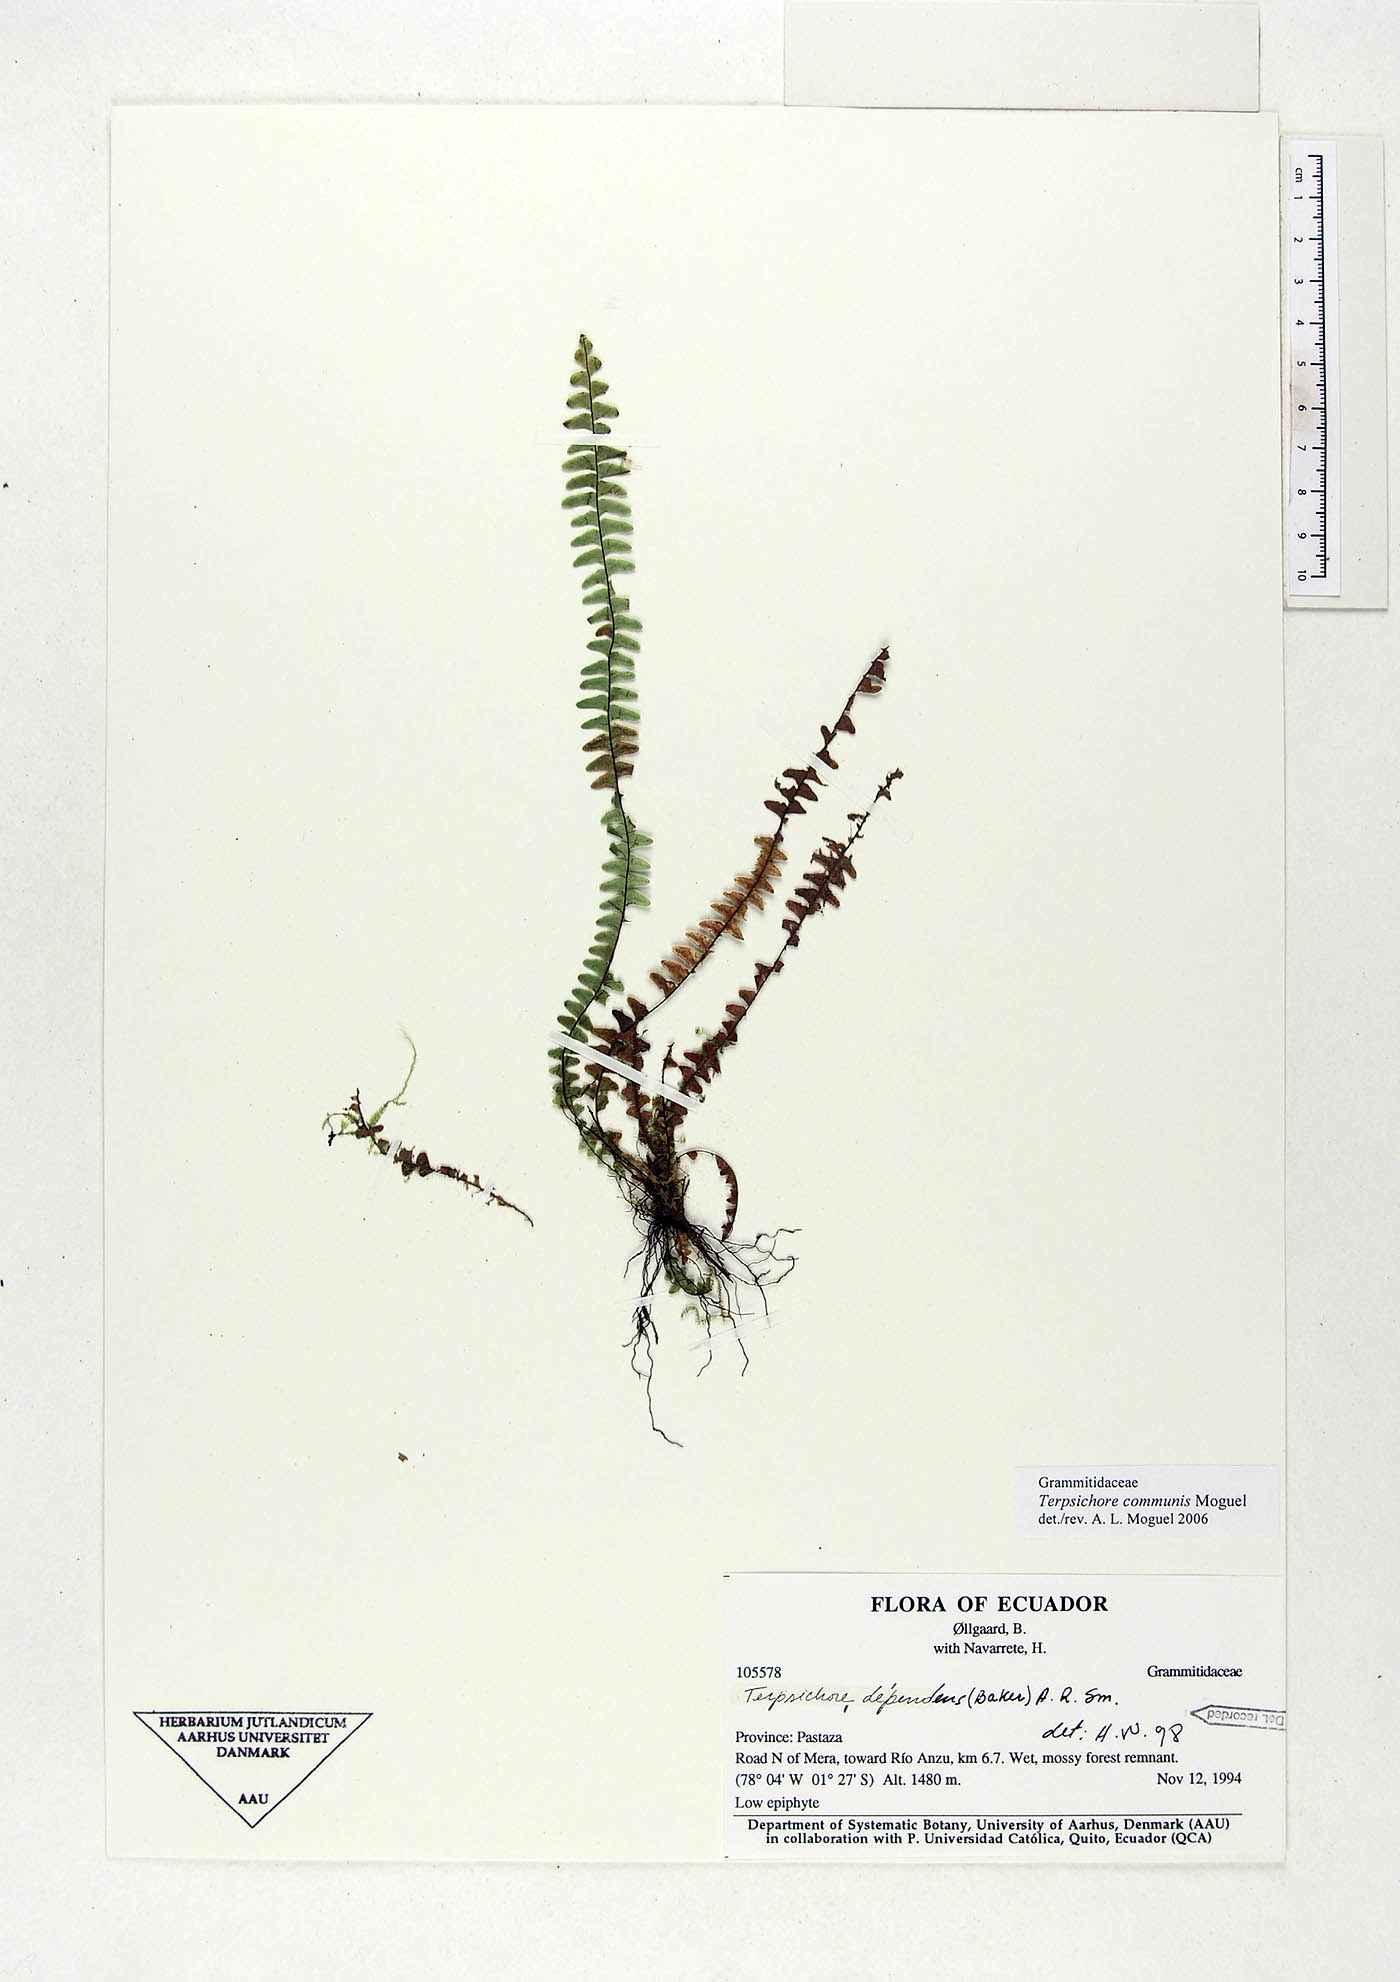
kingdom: Plantae
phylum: Tracheophyta
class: Polypodiopsida
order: Polypodiales
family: Polypodiaceae
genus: Terpsichore
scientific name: Terpsichore communis
